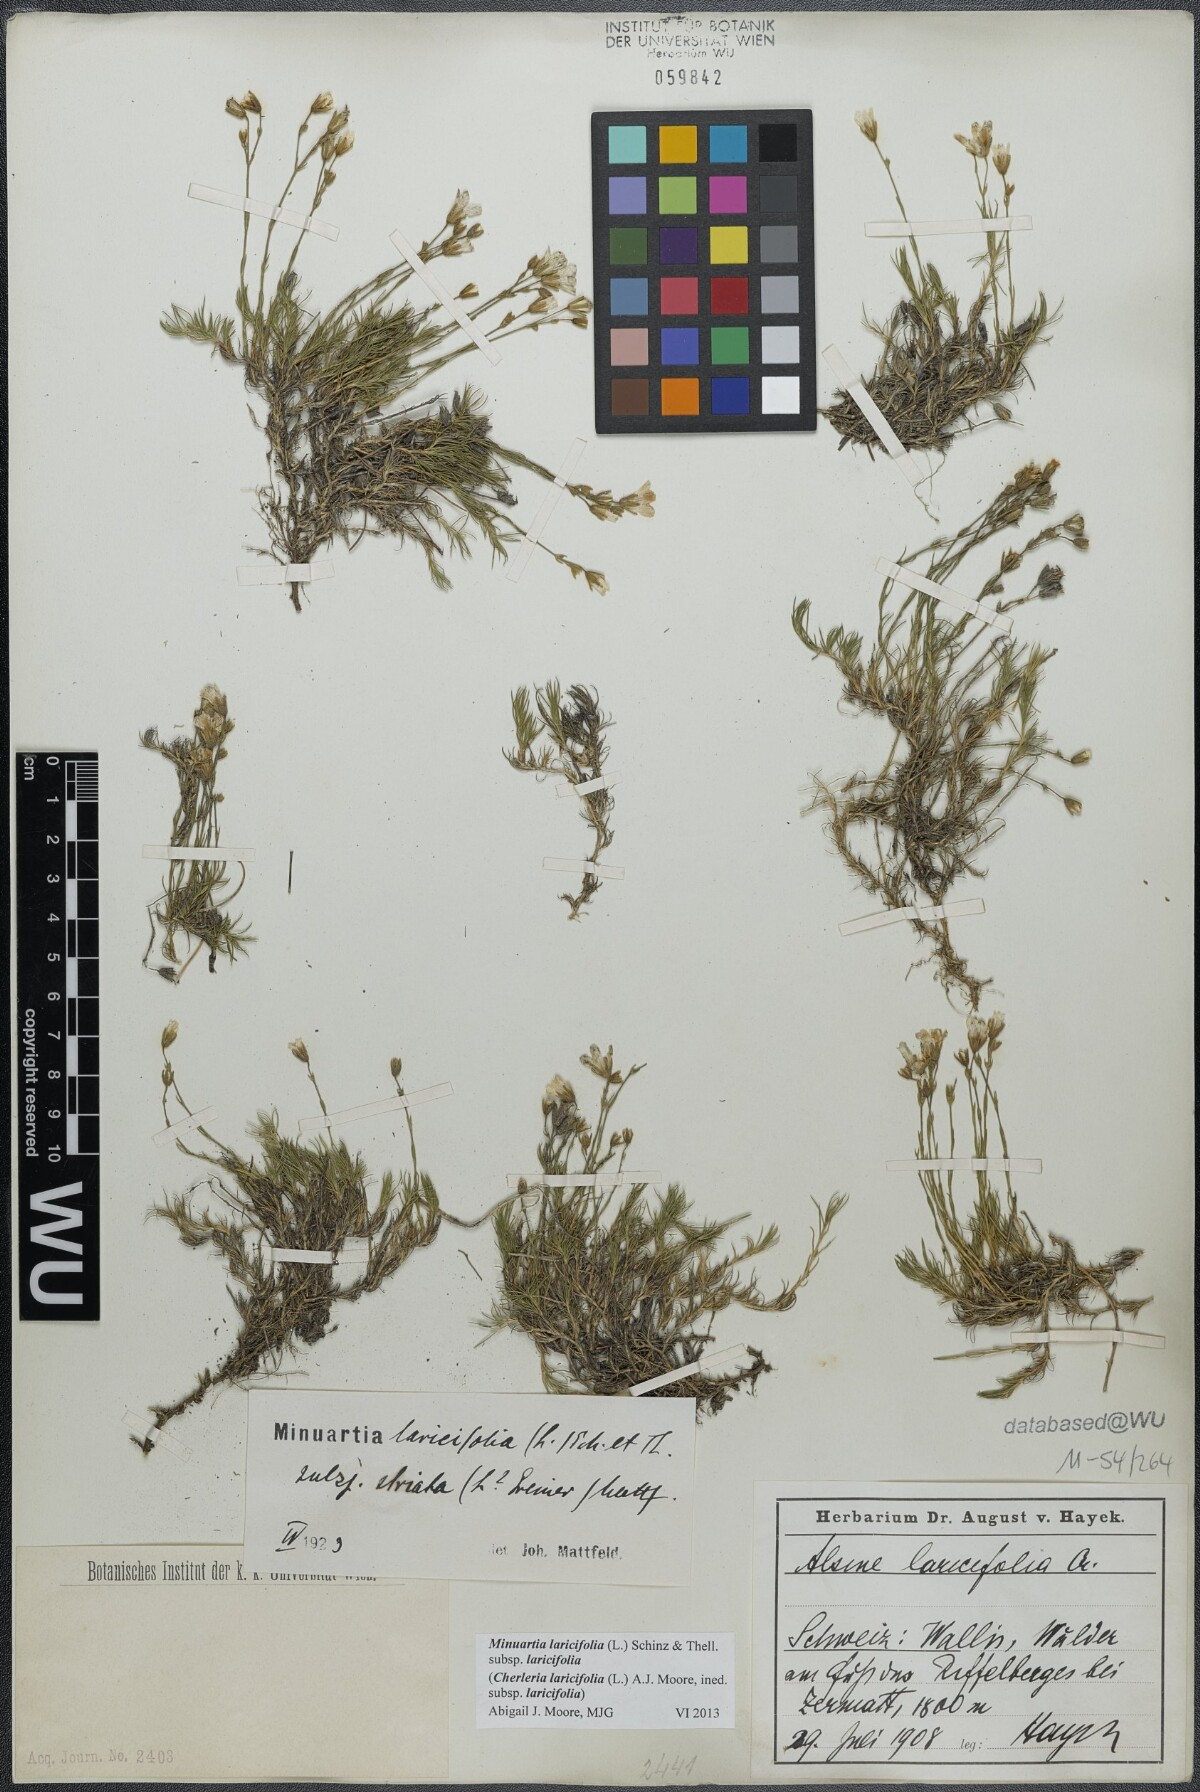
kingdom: Plantae
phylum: Tracheophyta
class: Magnoliopsida
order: Caryophyllales
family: Caryophyllaceae
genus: Cherleria
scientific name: Cherleria laricifolia
